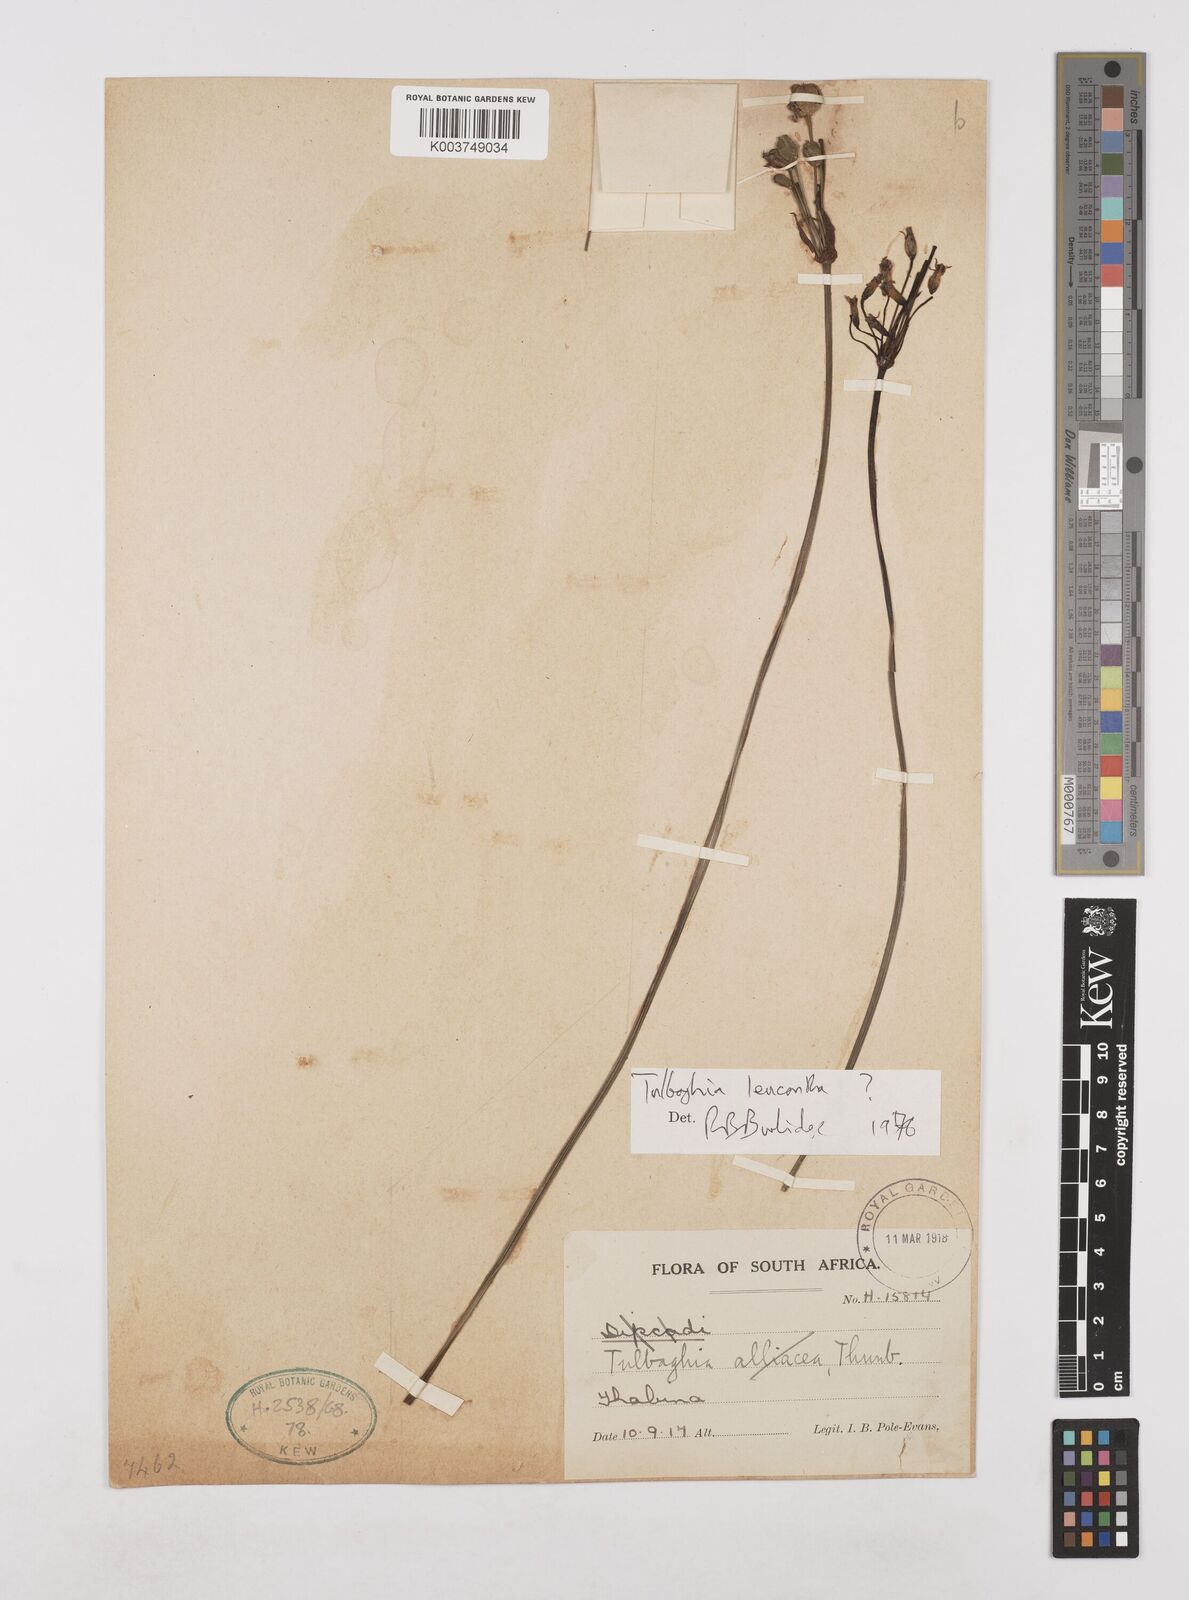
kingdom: Plantae
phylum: Tracheophyta
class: Liliopsida
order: Asparagales
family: Amaryllidaceae
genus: Tulbaghia
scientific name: Tulbaghia leucantha
